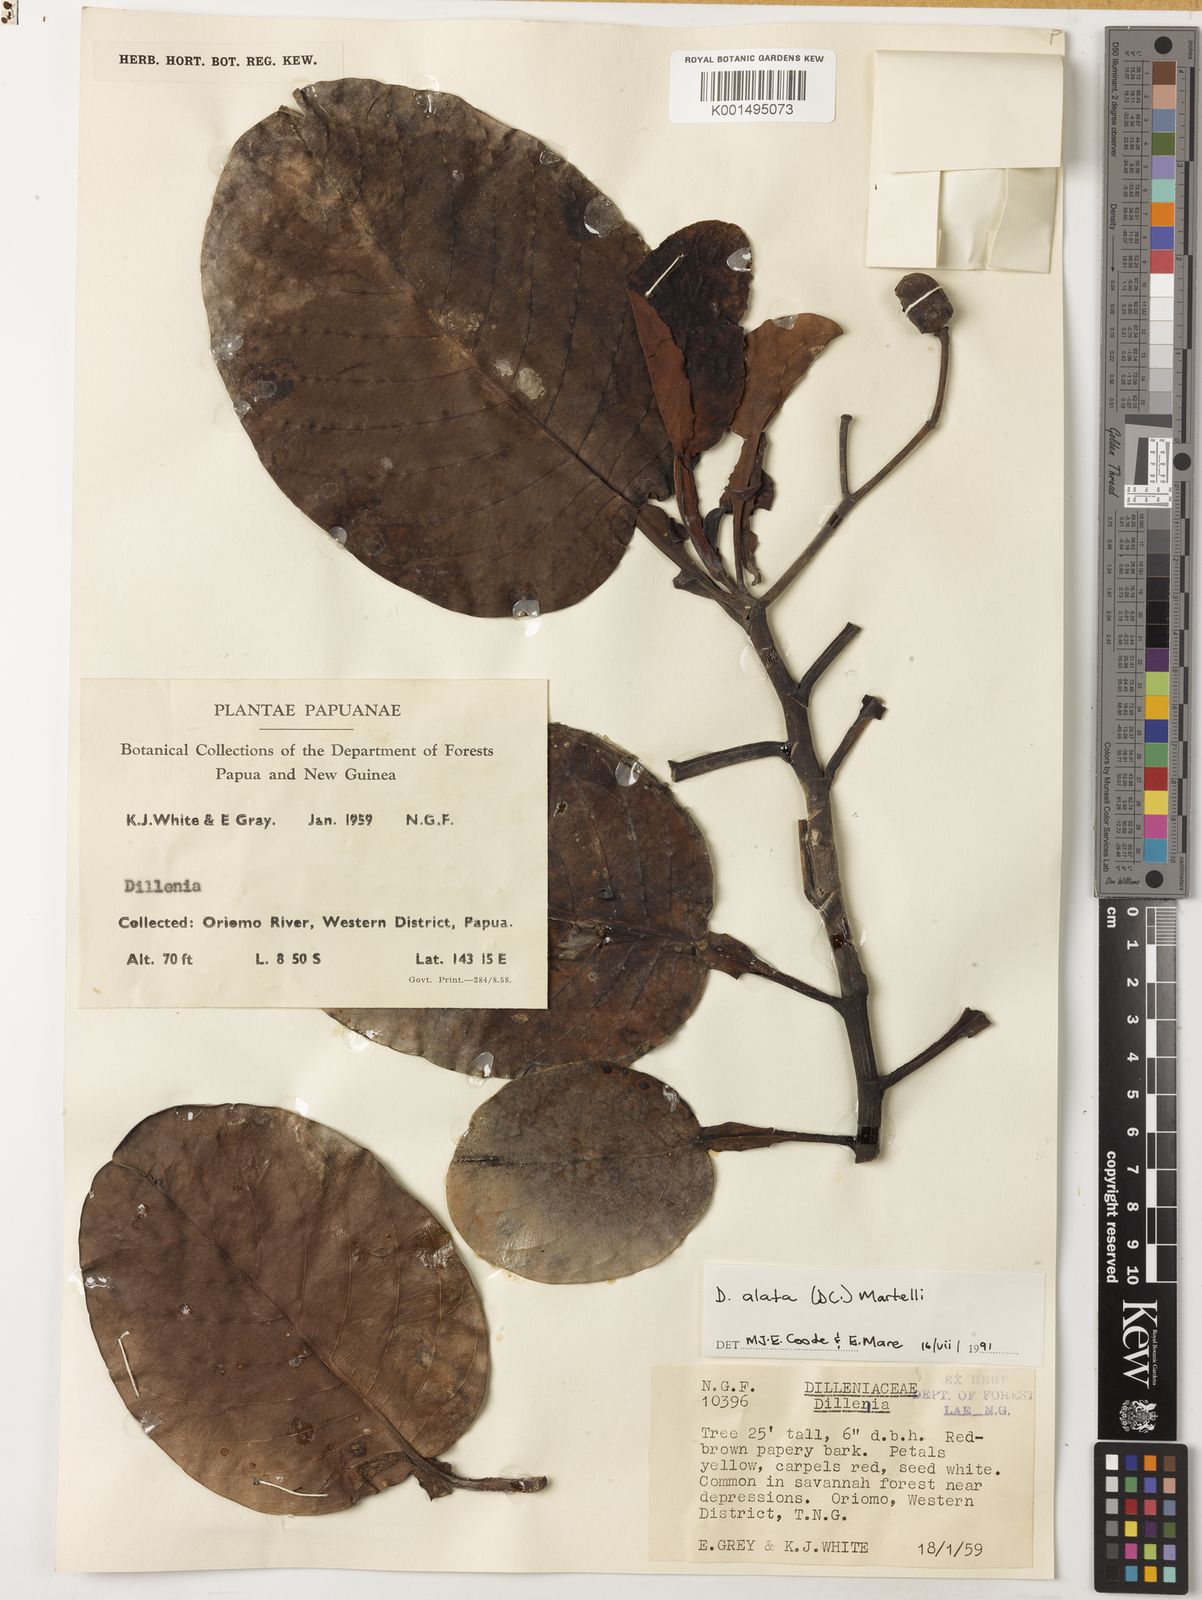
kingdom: Plantae
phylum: Tracheophyta
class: Magnoliopsida
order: Dilleniales
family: Dilleniaceae
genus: Dillenia
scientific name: Dillenia alata
